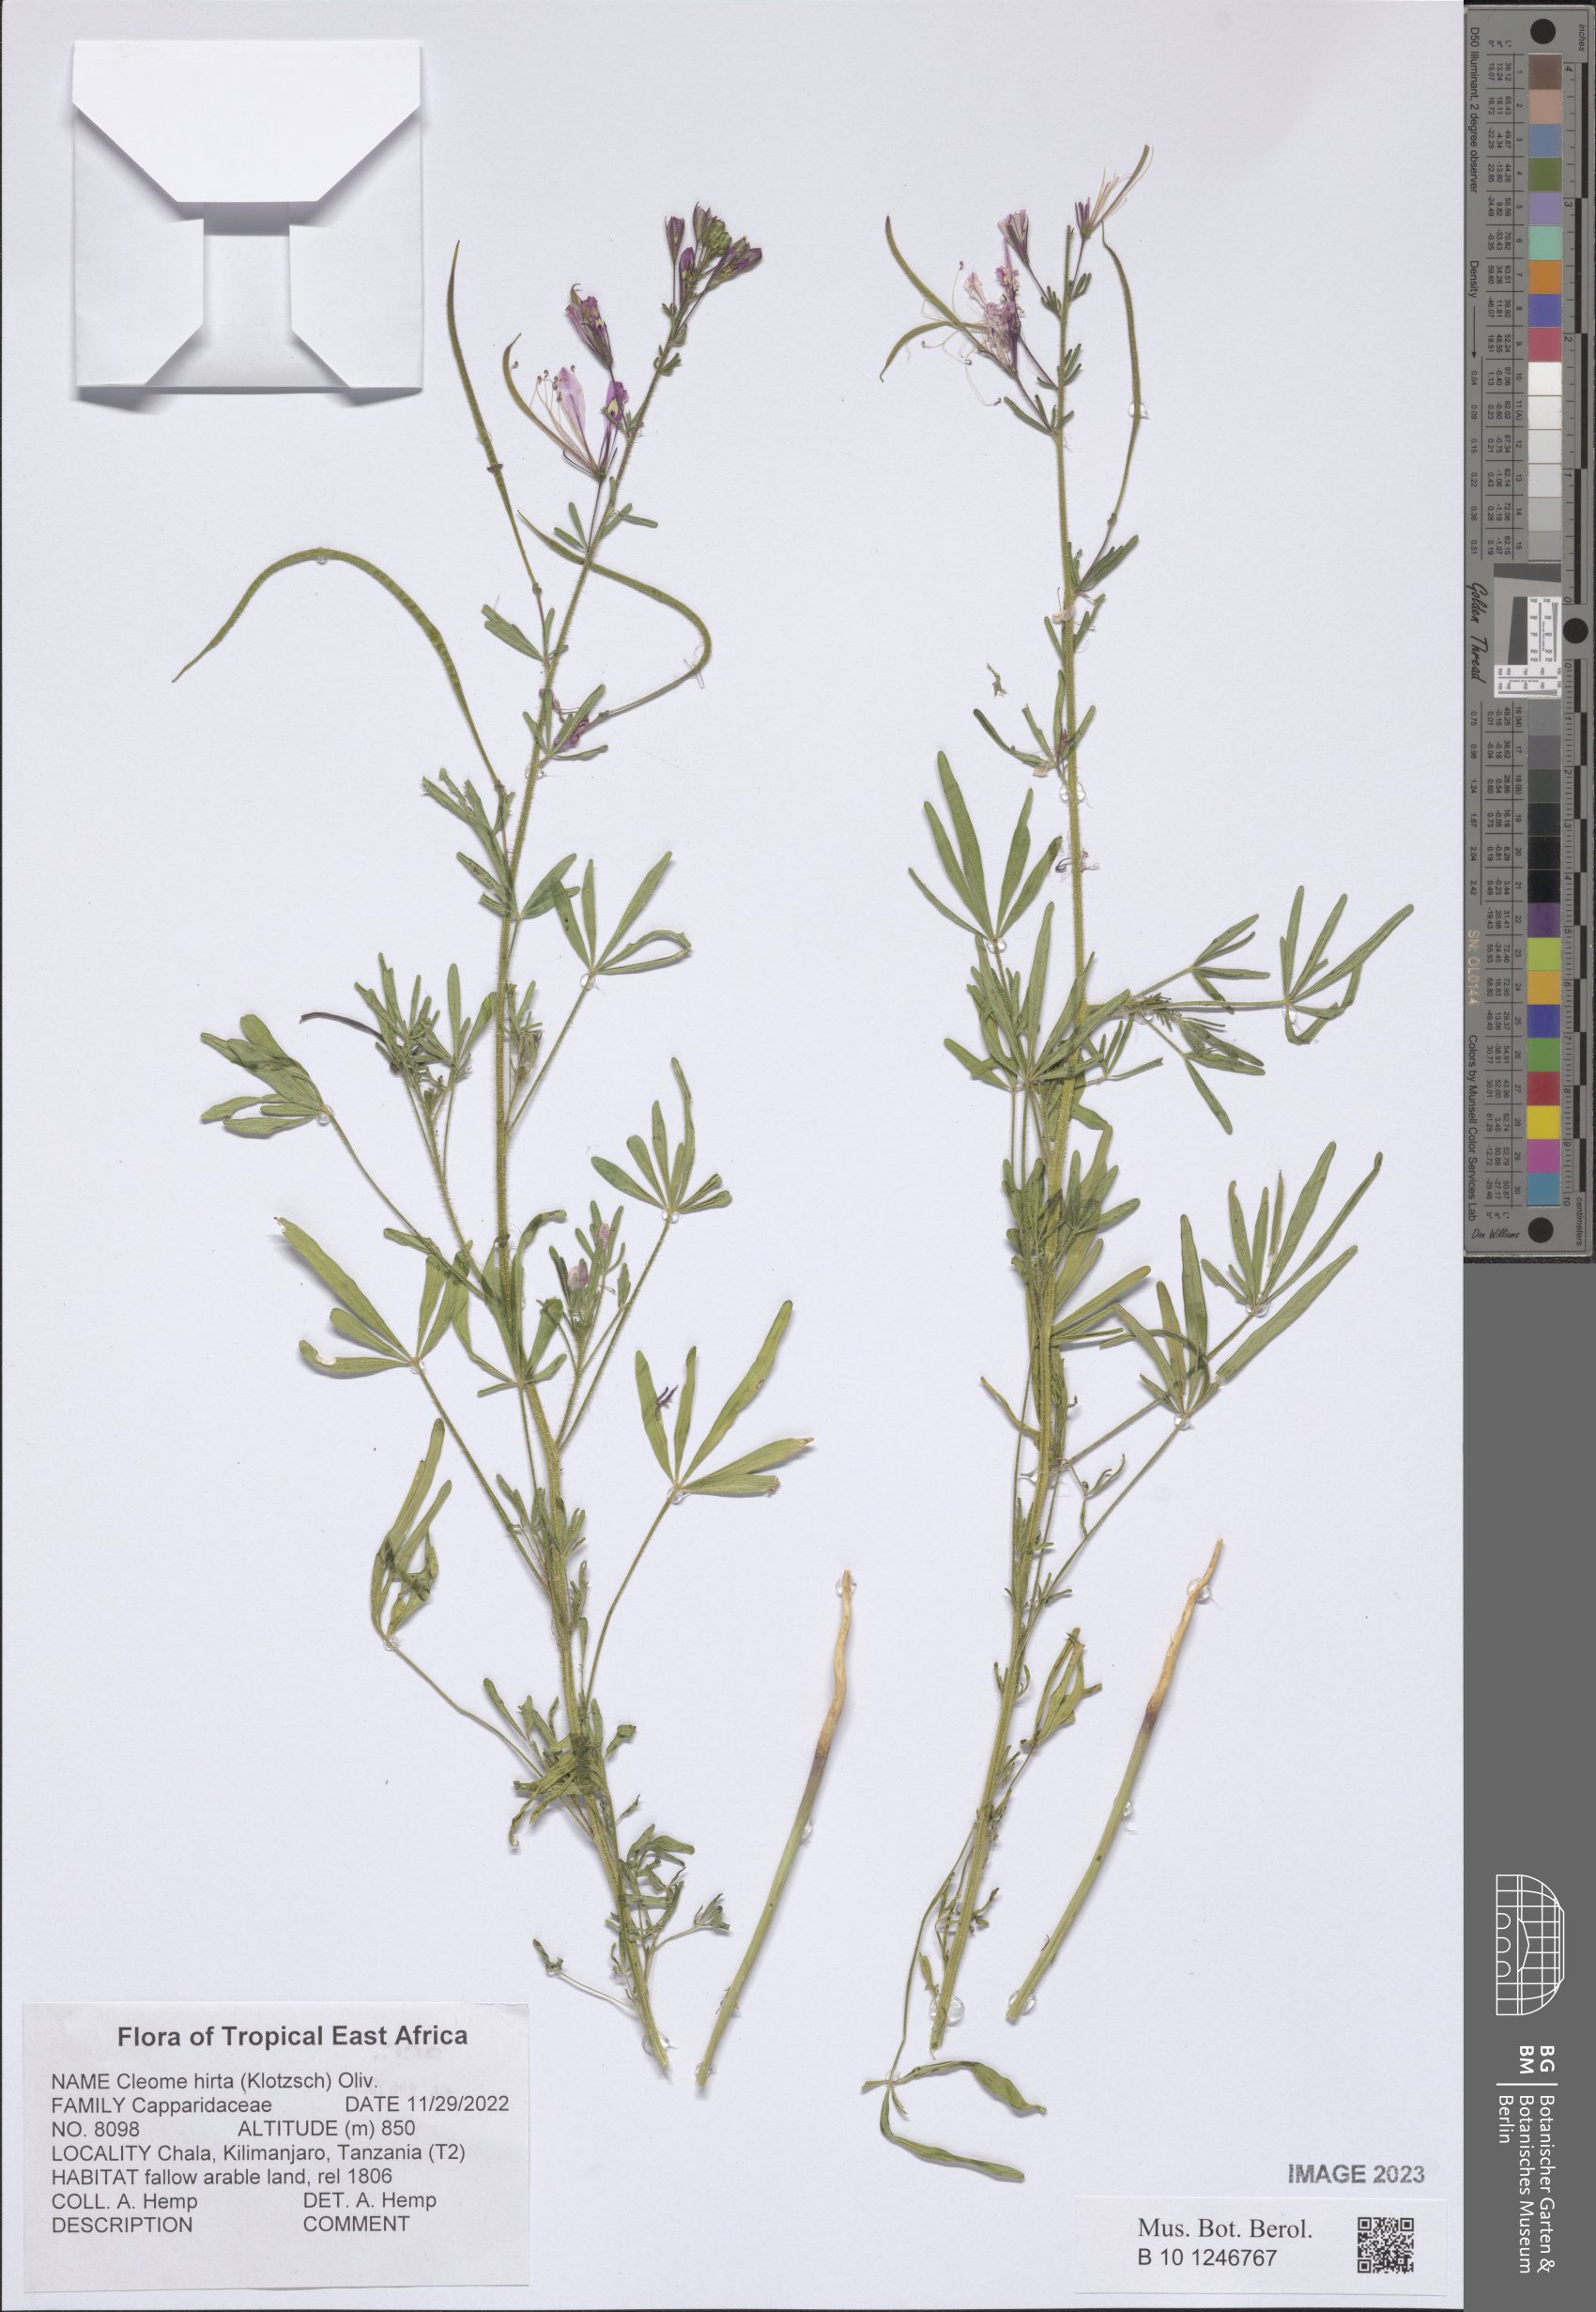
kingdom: Plantae
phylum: Tracheophyta
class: Magnoliopsida
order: Brassicales
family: Cleomaceae
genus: Sieruela
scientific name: Sieruela hirta
